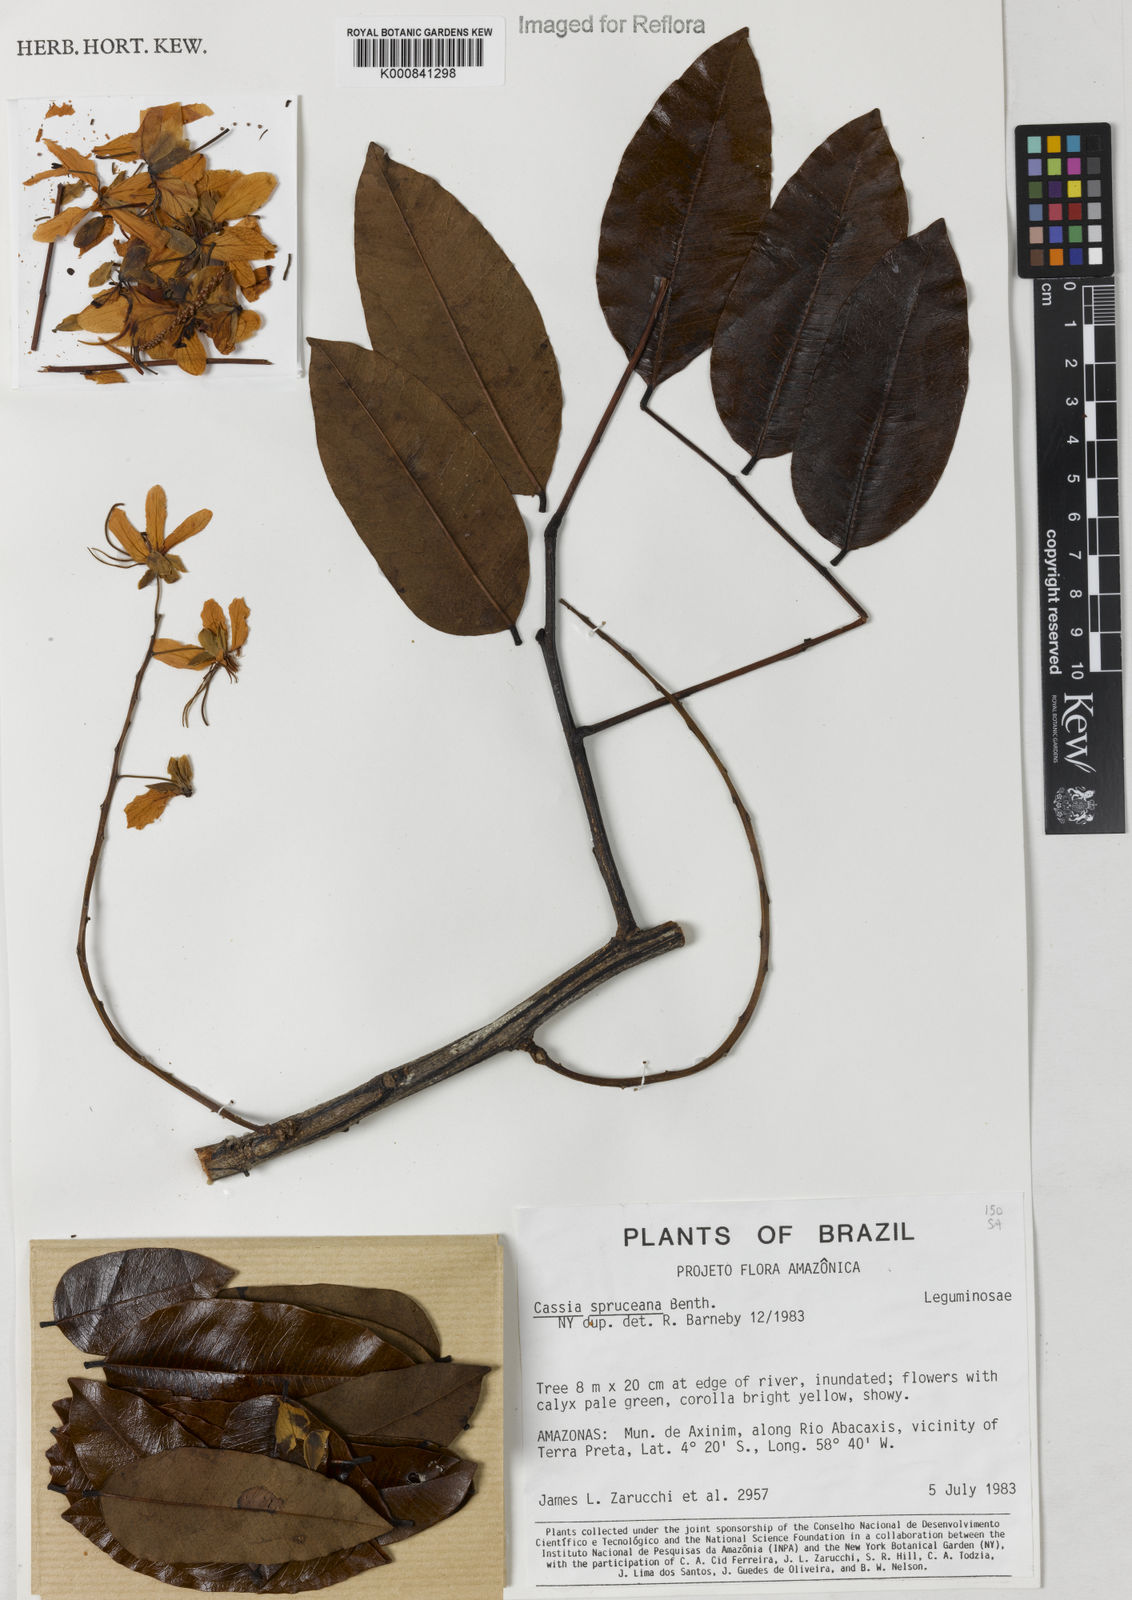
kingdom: Plantae
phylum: Tracheophyta
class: Magnoliopsida
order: Fabales
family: Fabaceae
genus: Cassia
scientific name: Cassia spruceana
